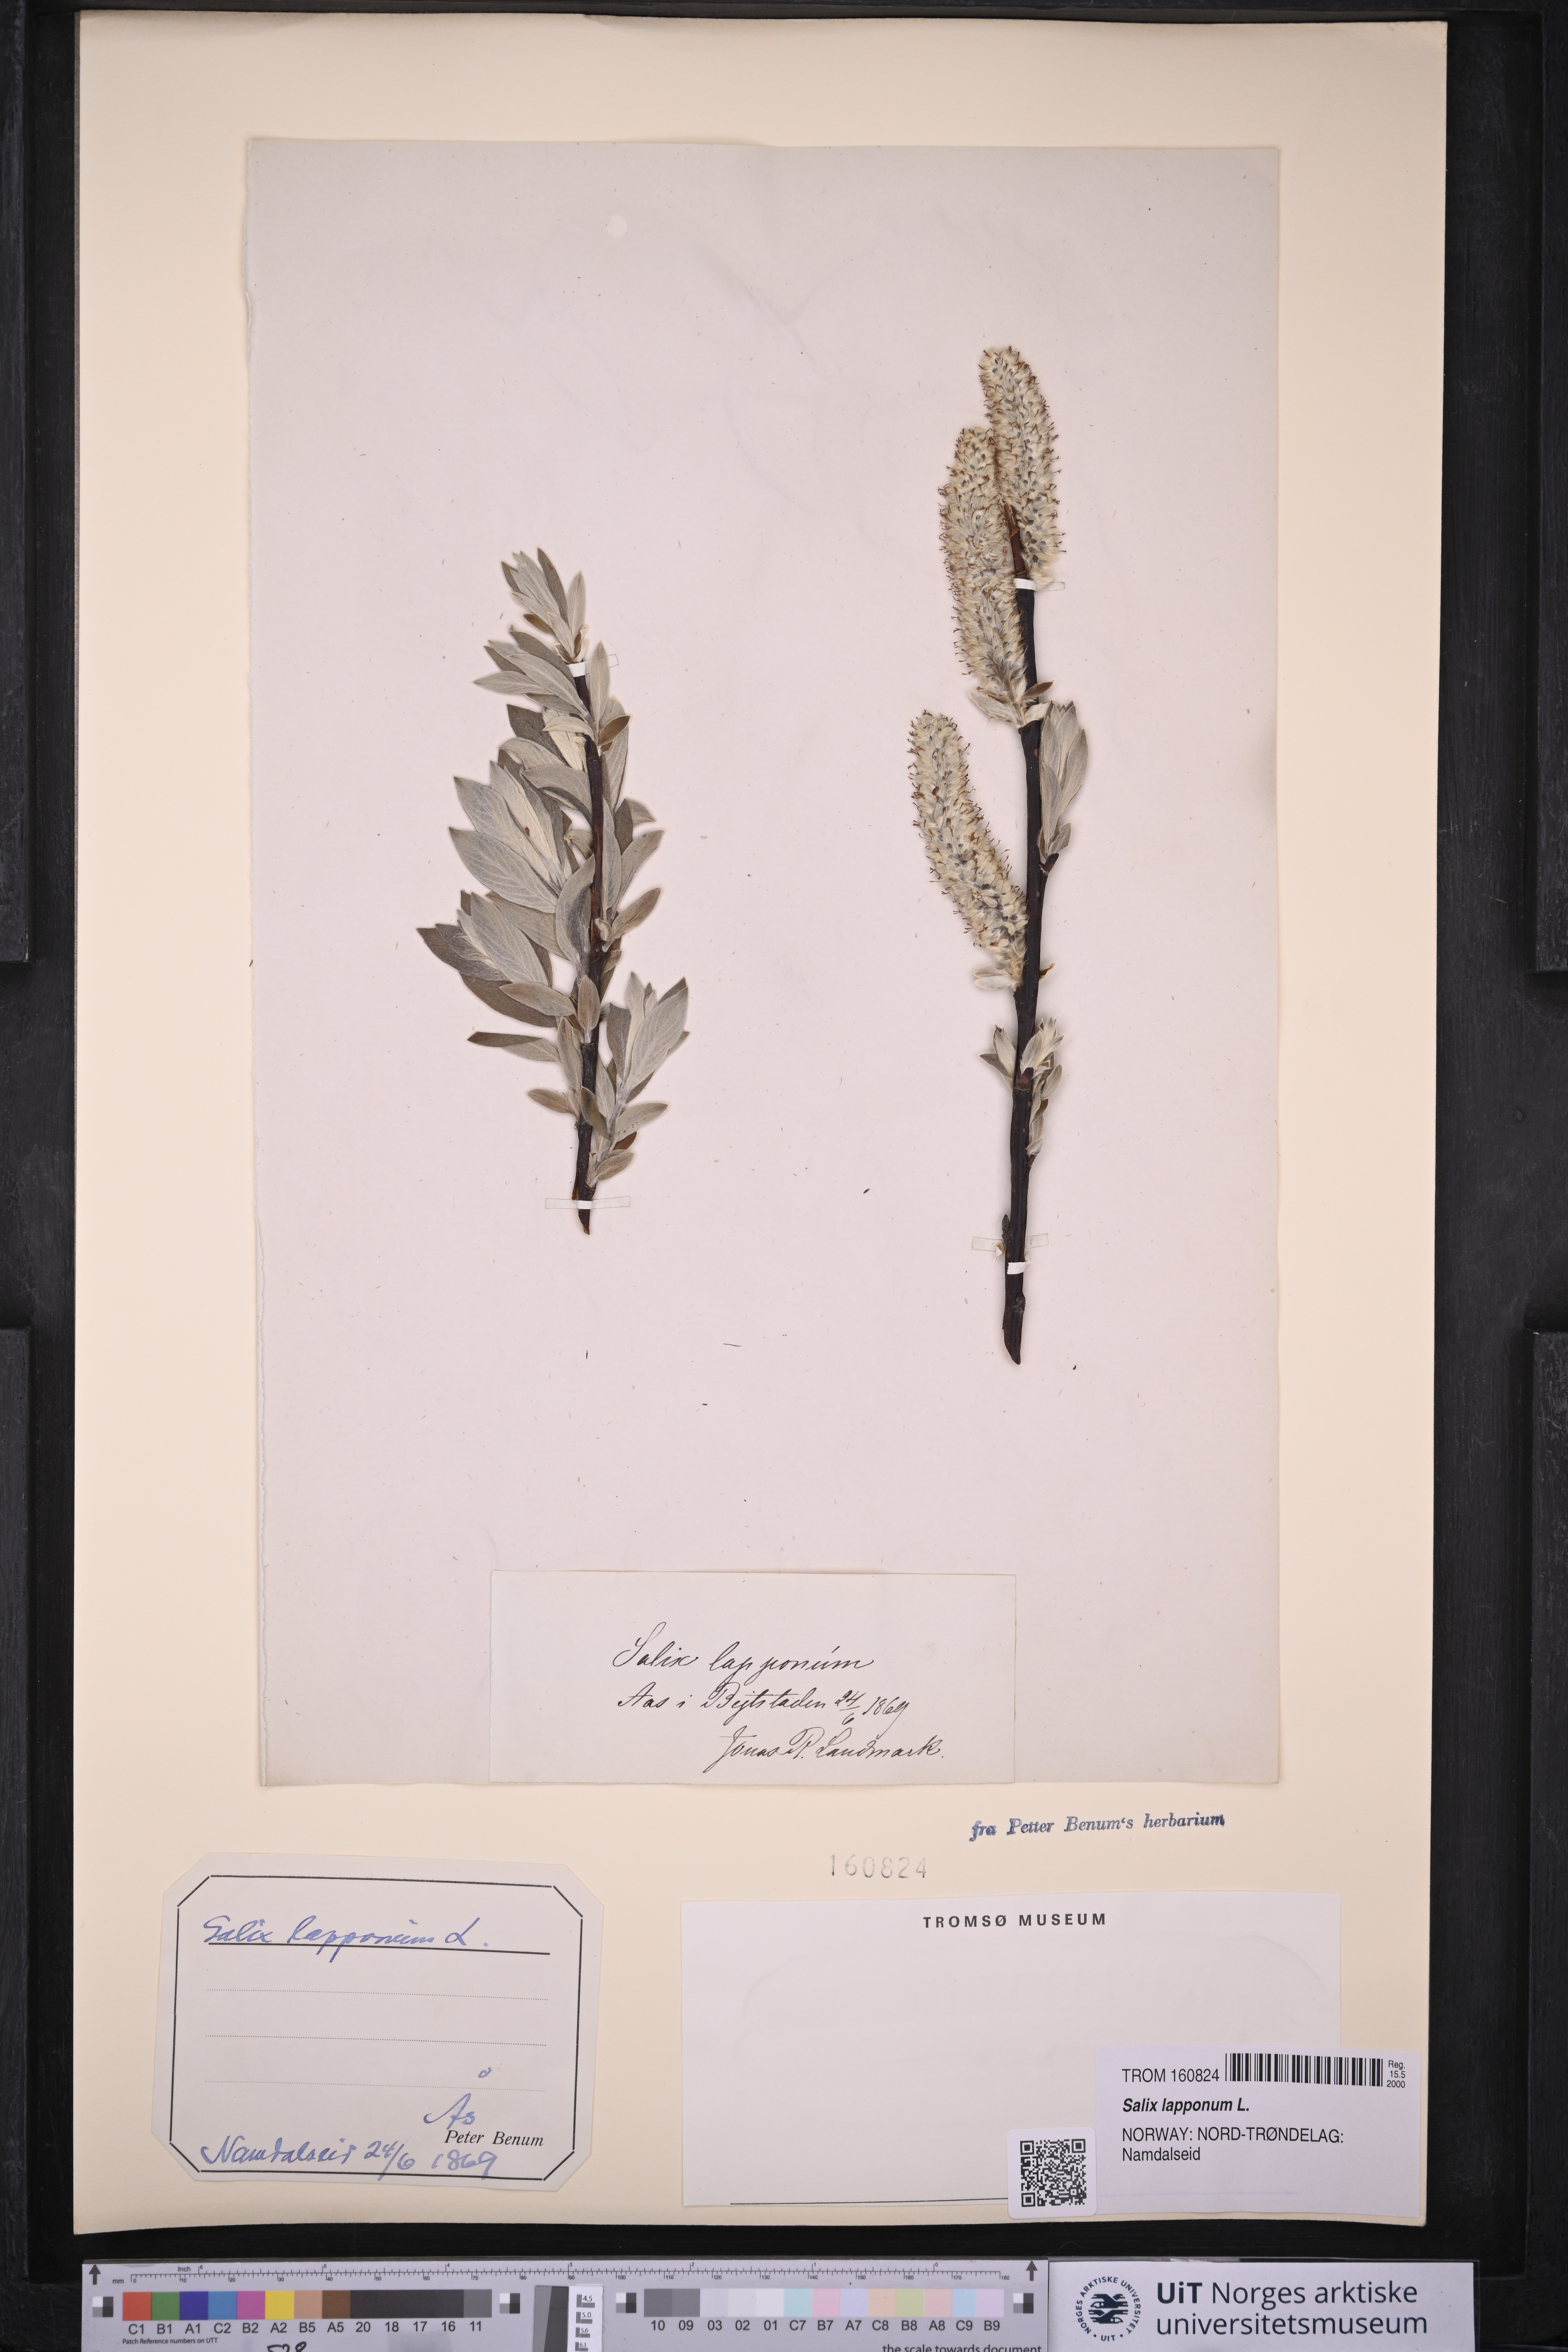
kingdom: Plantae
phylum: Tracheophyta
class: Magnoliopsida
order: Malpighiales
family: Salicaceae
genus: Salix
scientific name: Salix lapponum
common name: Downy willow
